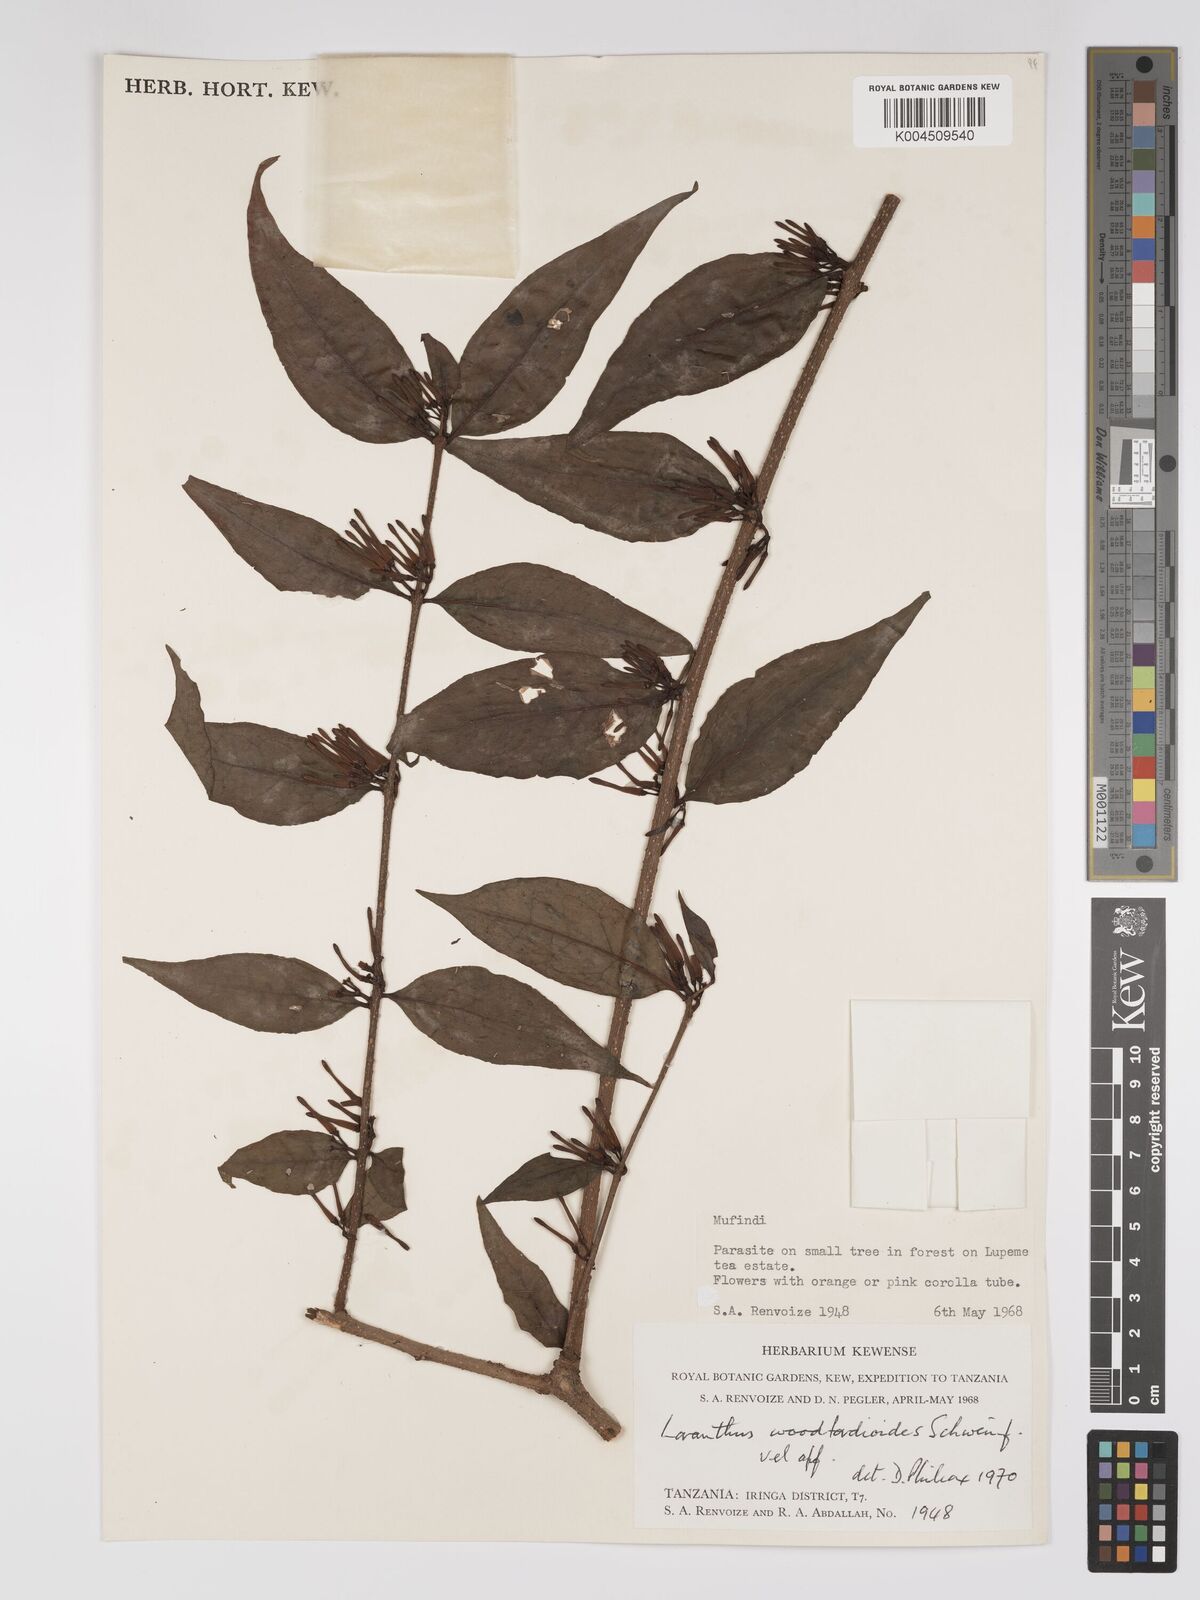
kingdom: Plantae
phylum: Tracheophyta
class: Magnoliopsida
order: Santalales
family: Loranthaceae
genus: Englerina
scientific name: Englerina inaequilatera
